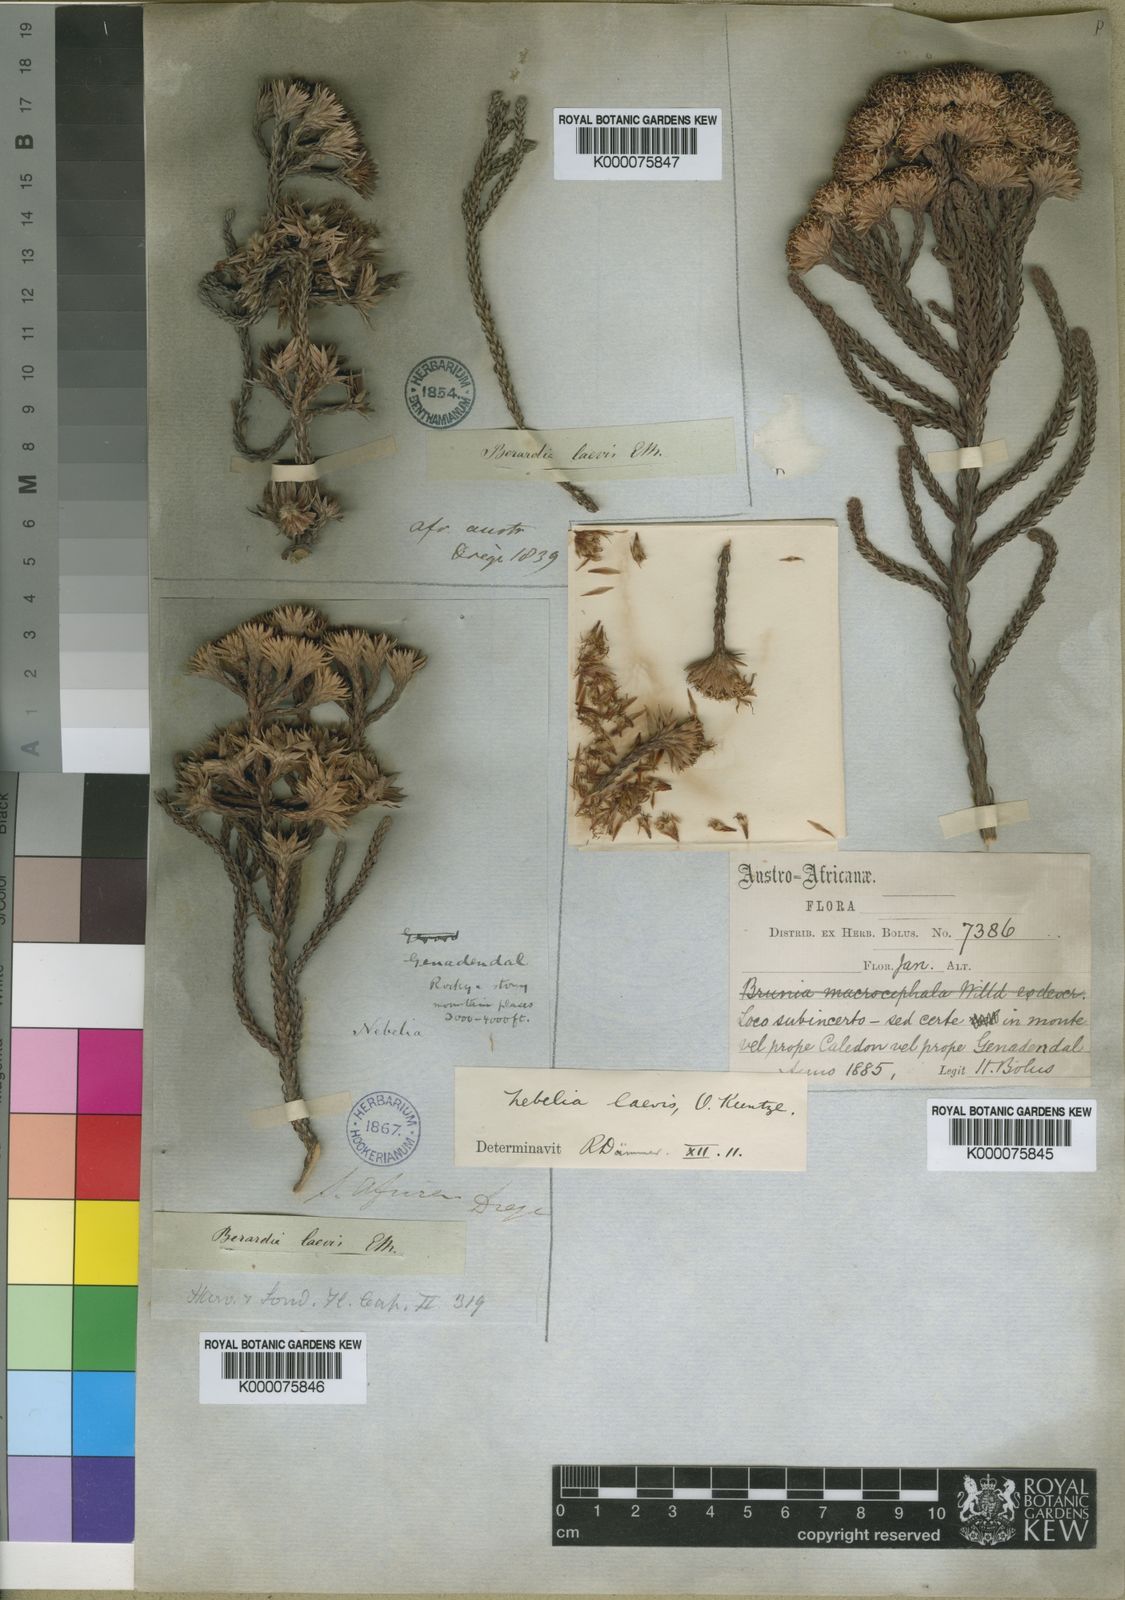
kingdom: Plantae
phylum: Tracheophyta
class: Magnoliopsida
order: Bruniales
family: Bruniaceae
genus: Brunia
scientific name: Brunia latebracteata
